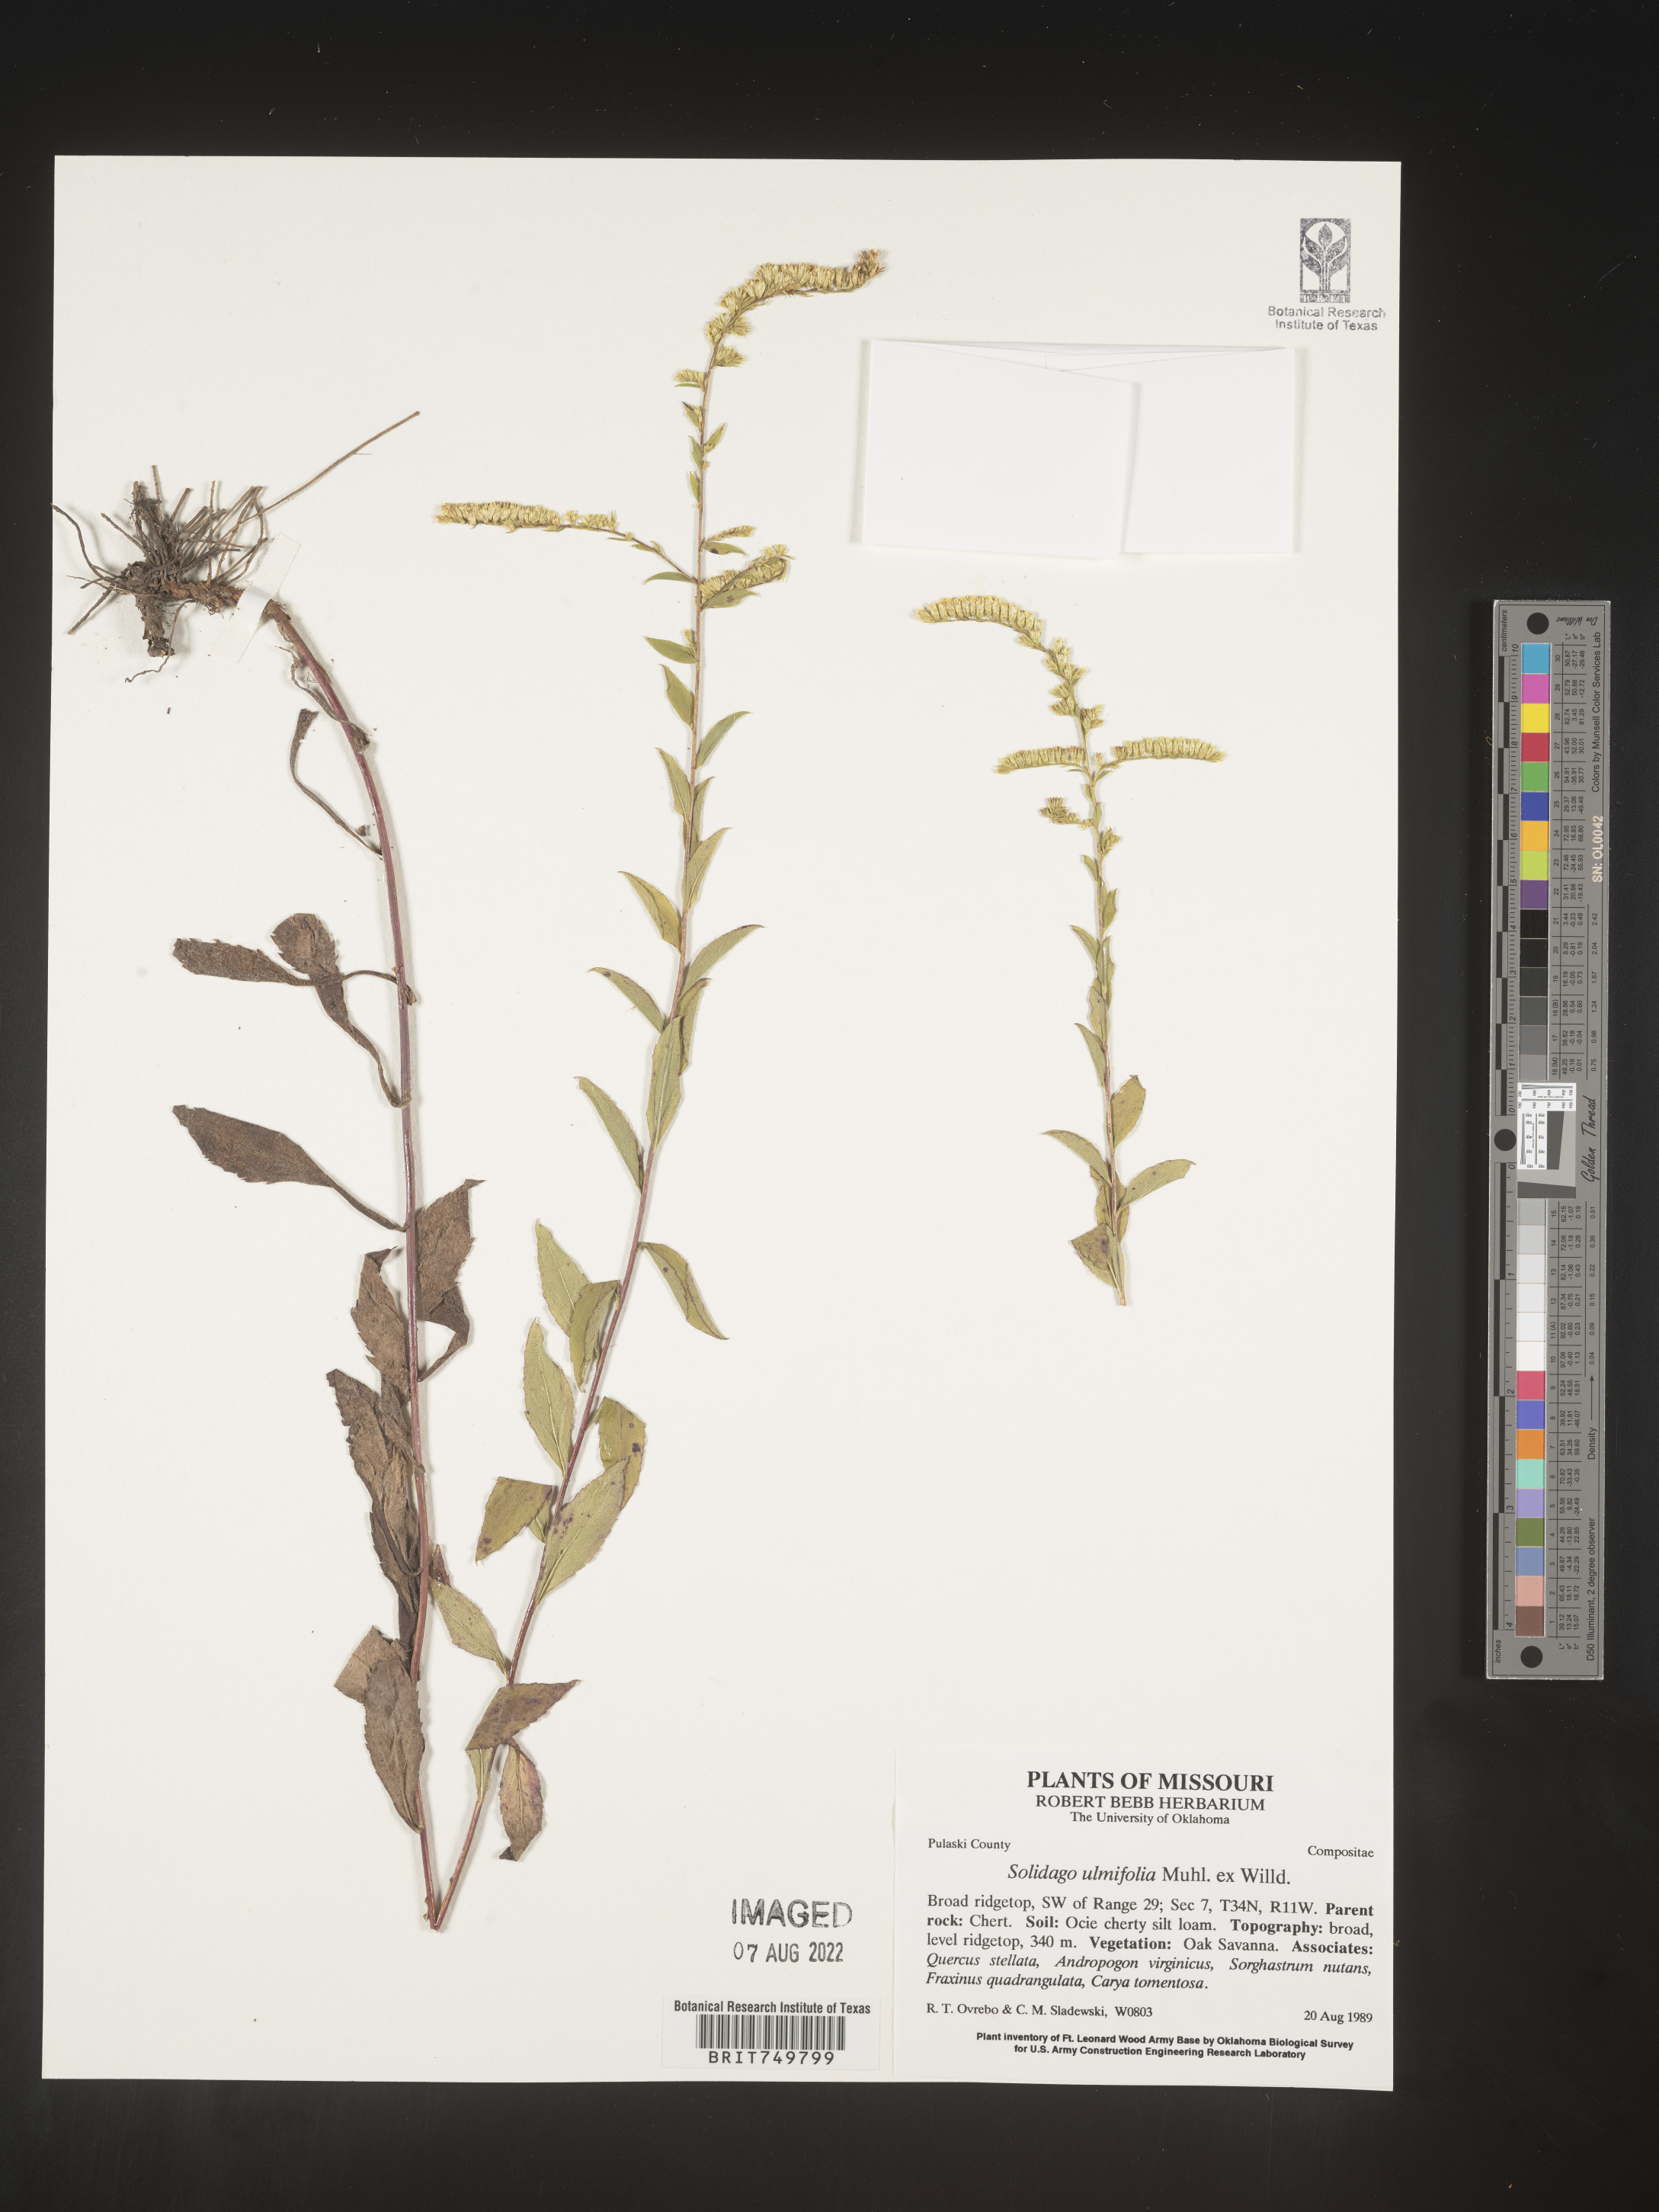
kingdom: Plantae
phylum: Tracheophyta
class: Magnoliopsida
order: Asterales
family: Asteraceae
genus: Solidago
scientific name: Solidago ulmifolia
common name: Elm-leaf goldenrod
